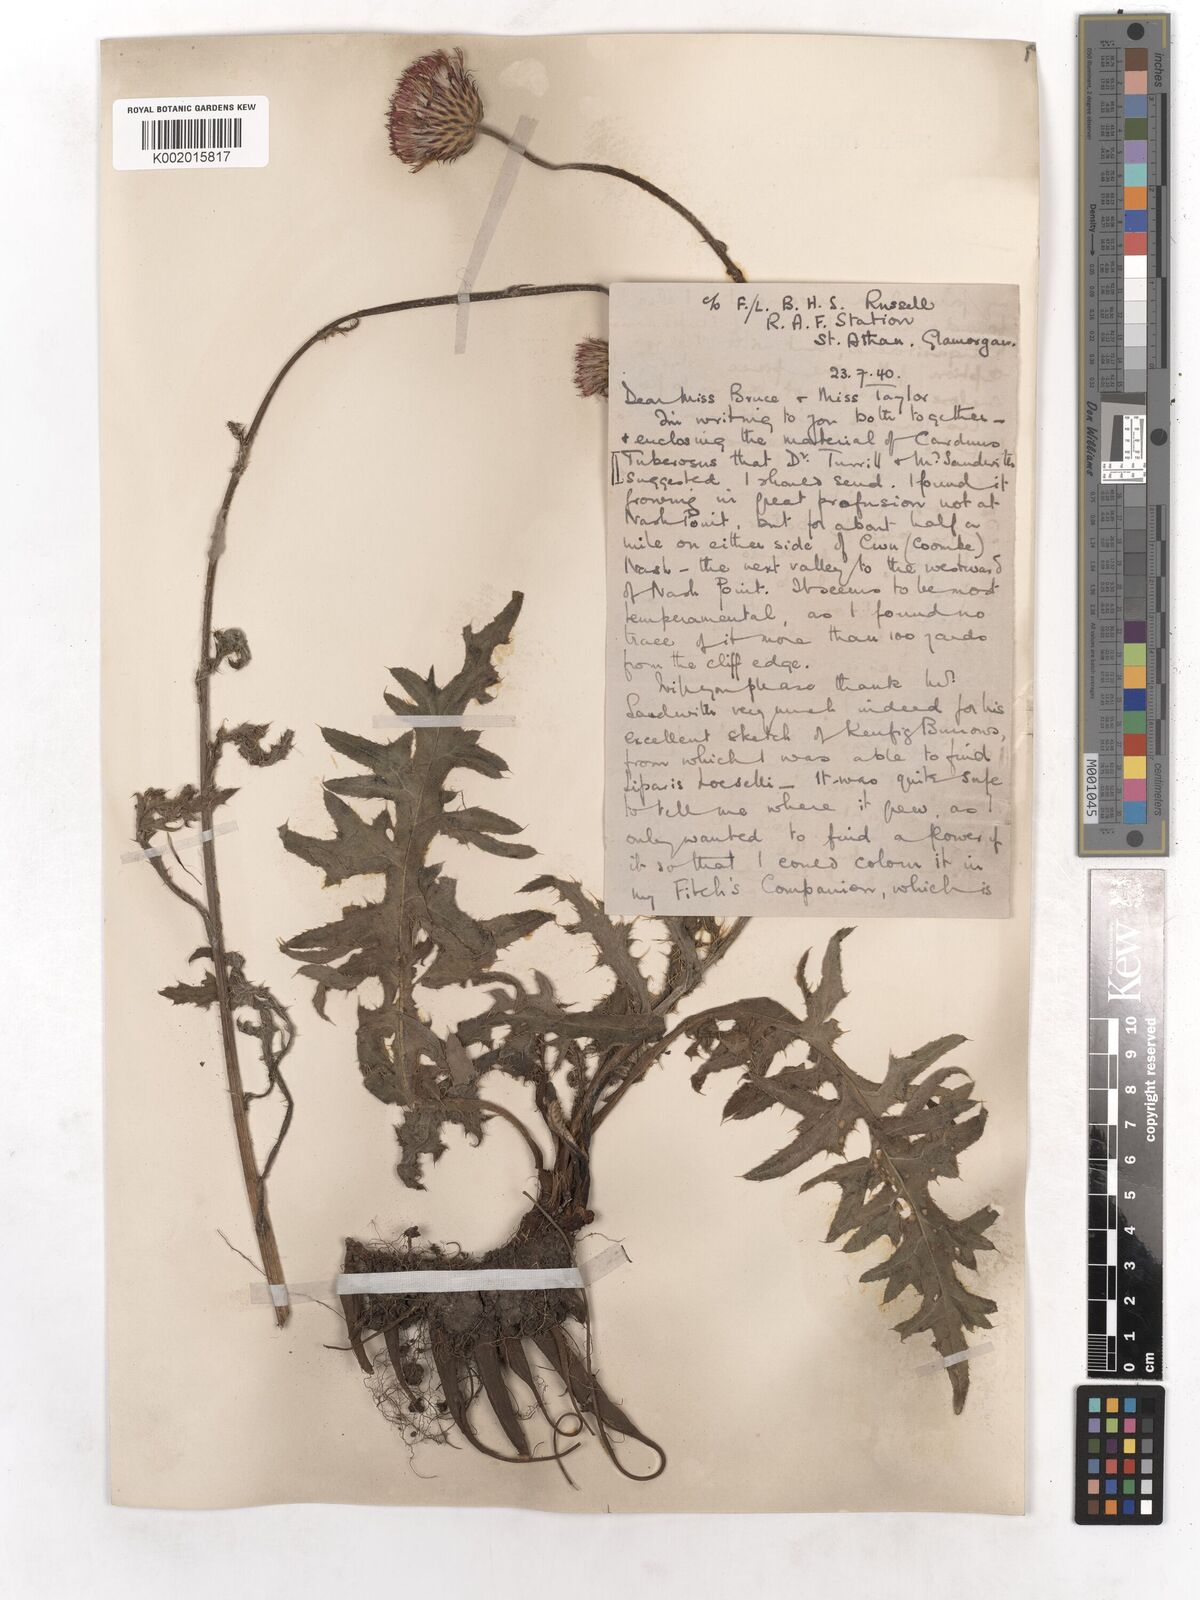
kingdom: Plantae
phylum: Tracheophyta
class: Magnoliopsida
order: Asterales
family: Asteraceae
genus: Cirsium
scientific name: Cirsium tuberosum
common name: Tuberous thistle
